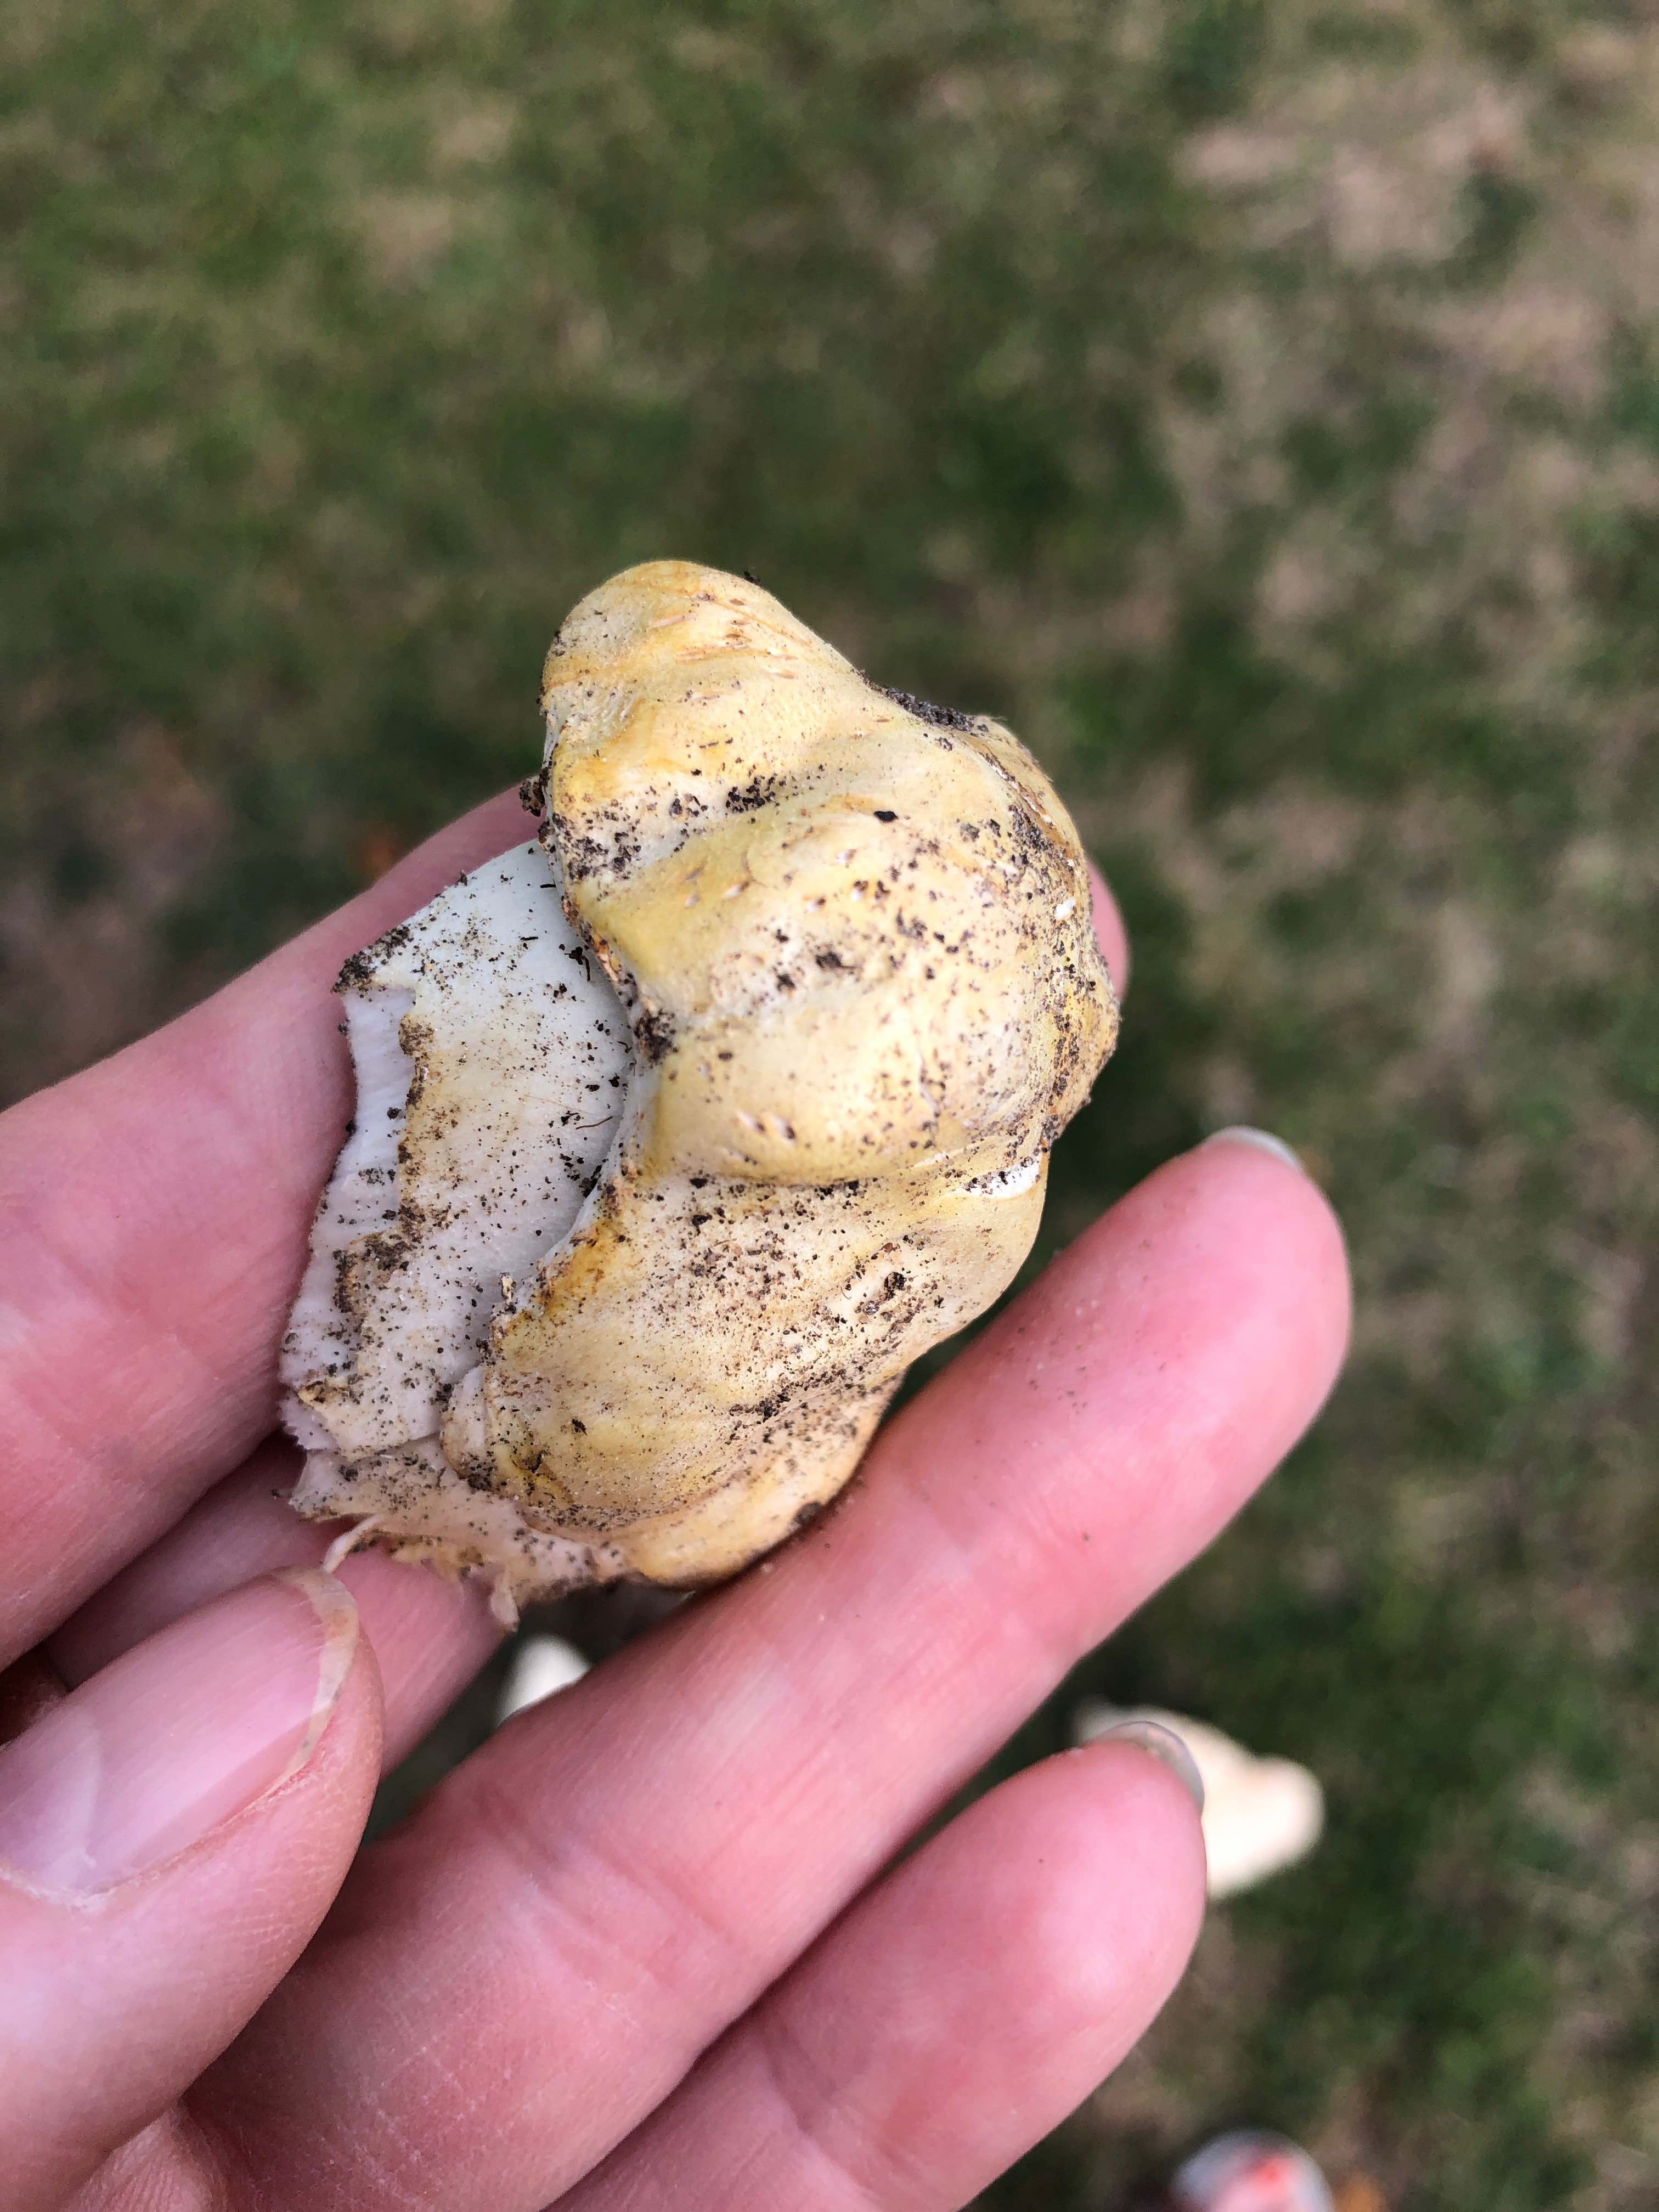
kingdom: Fungi
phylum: Basidiomycota
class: Agaricomycetes
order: Agaricales
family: Agaricaceae
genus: Agaricus
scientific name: Agaricus
